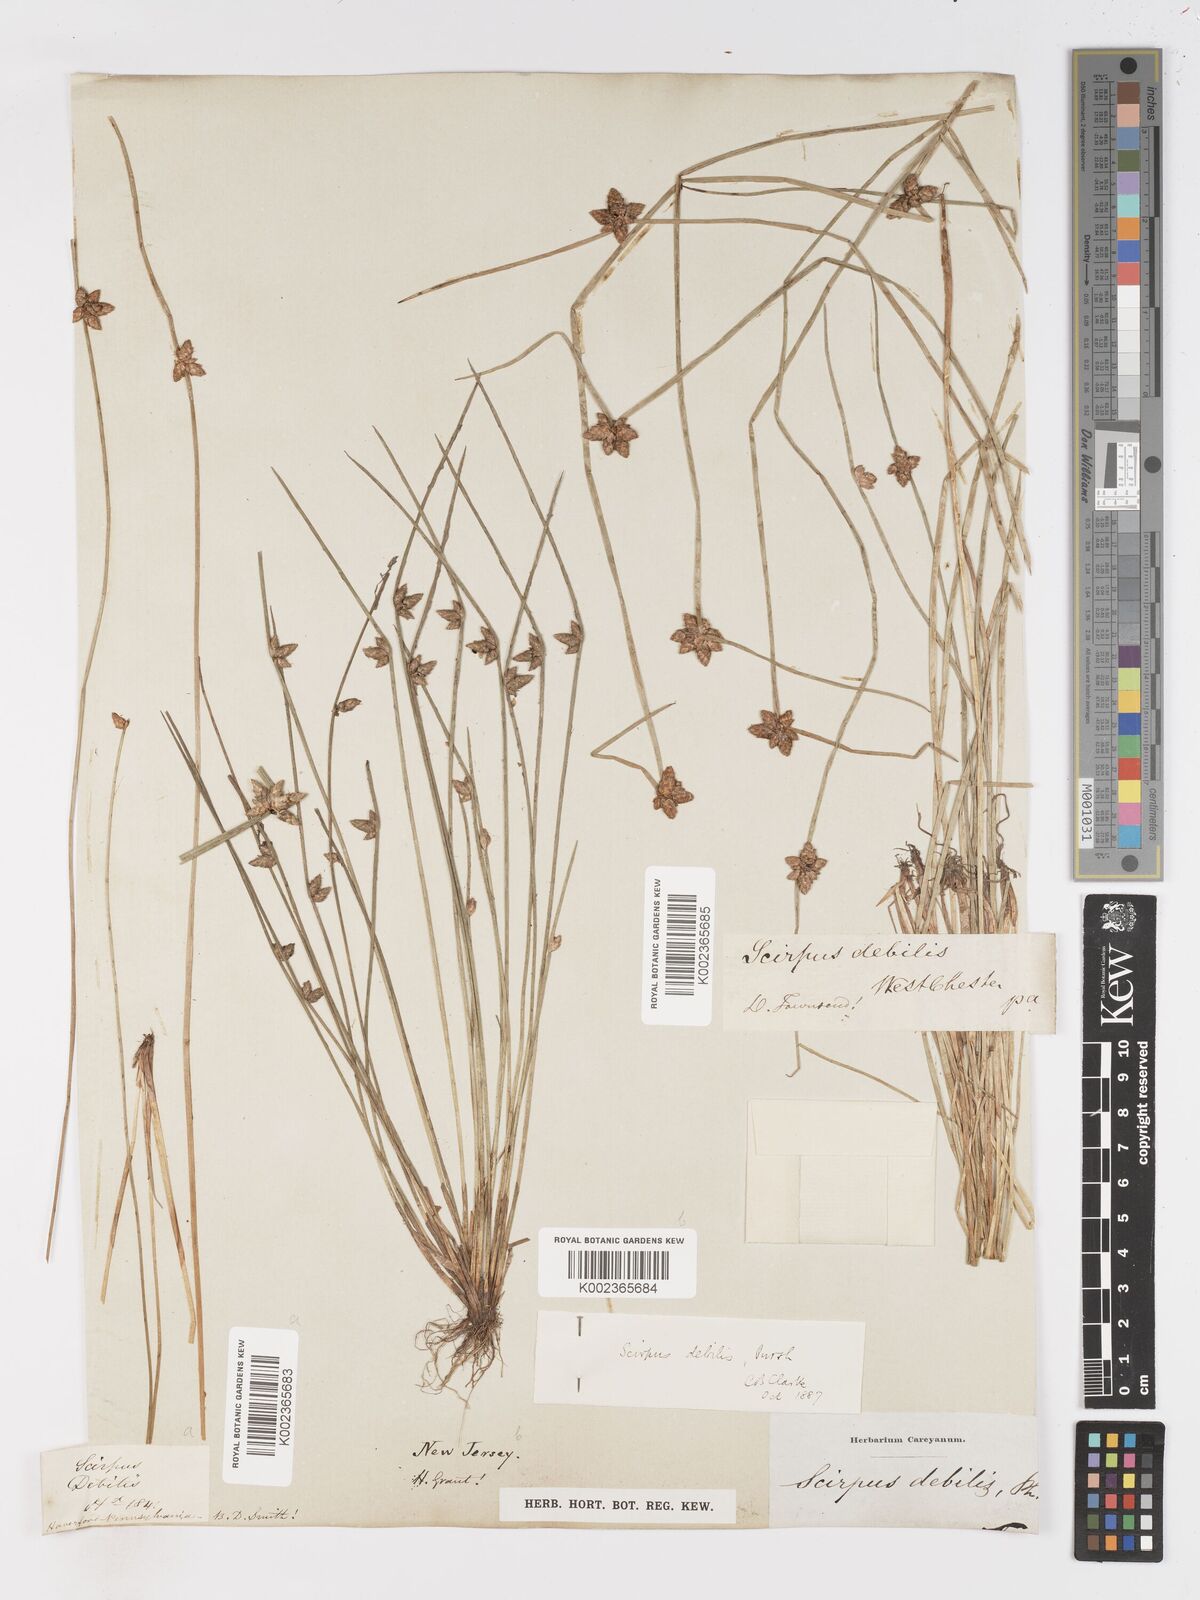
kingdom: Plantae
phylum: Tracheophyta
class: Liliopsida
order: Poales
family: Cyperaceae
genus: Schoenoplectiella
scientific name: Schoenoplectiella purshiana
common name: Weak-stalked bulrush
